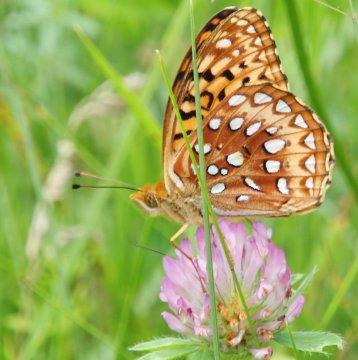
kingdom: Animalia
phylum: Arthropoda
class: Insecta
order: Lepidoptera
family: Nymphalidae
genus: Speyeria
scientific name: Speyeria cybele
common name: Great Spangled Fritillary
